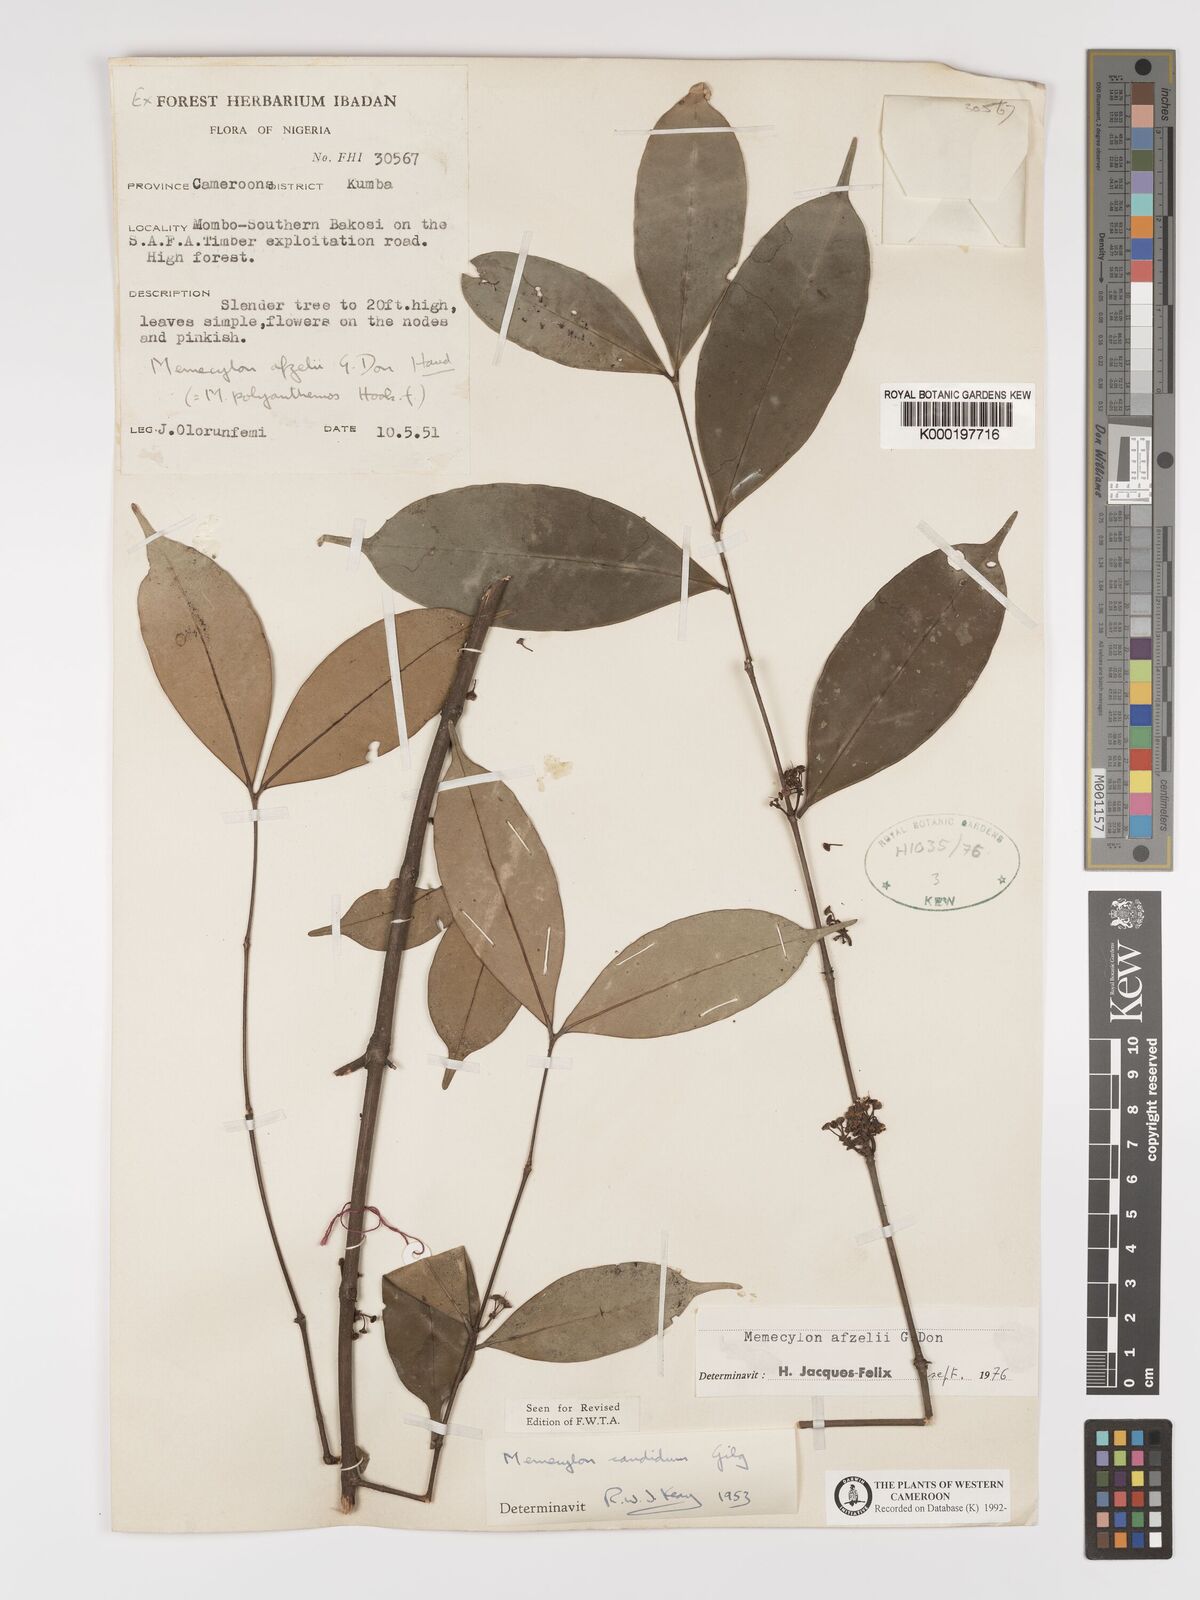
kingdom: Plantae
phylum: Tracheophyta
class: Magnoliopsida
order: Myrtales
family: Melastomataceae
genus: Memecylon
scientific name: Memecylon afzelii
